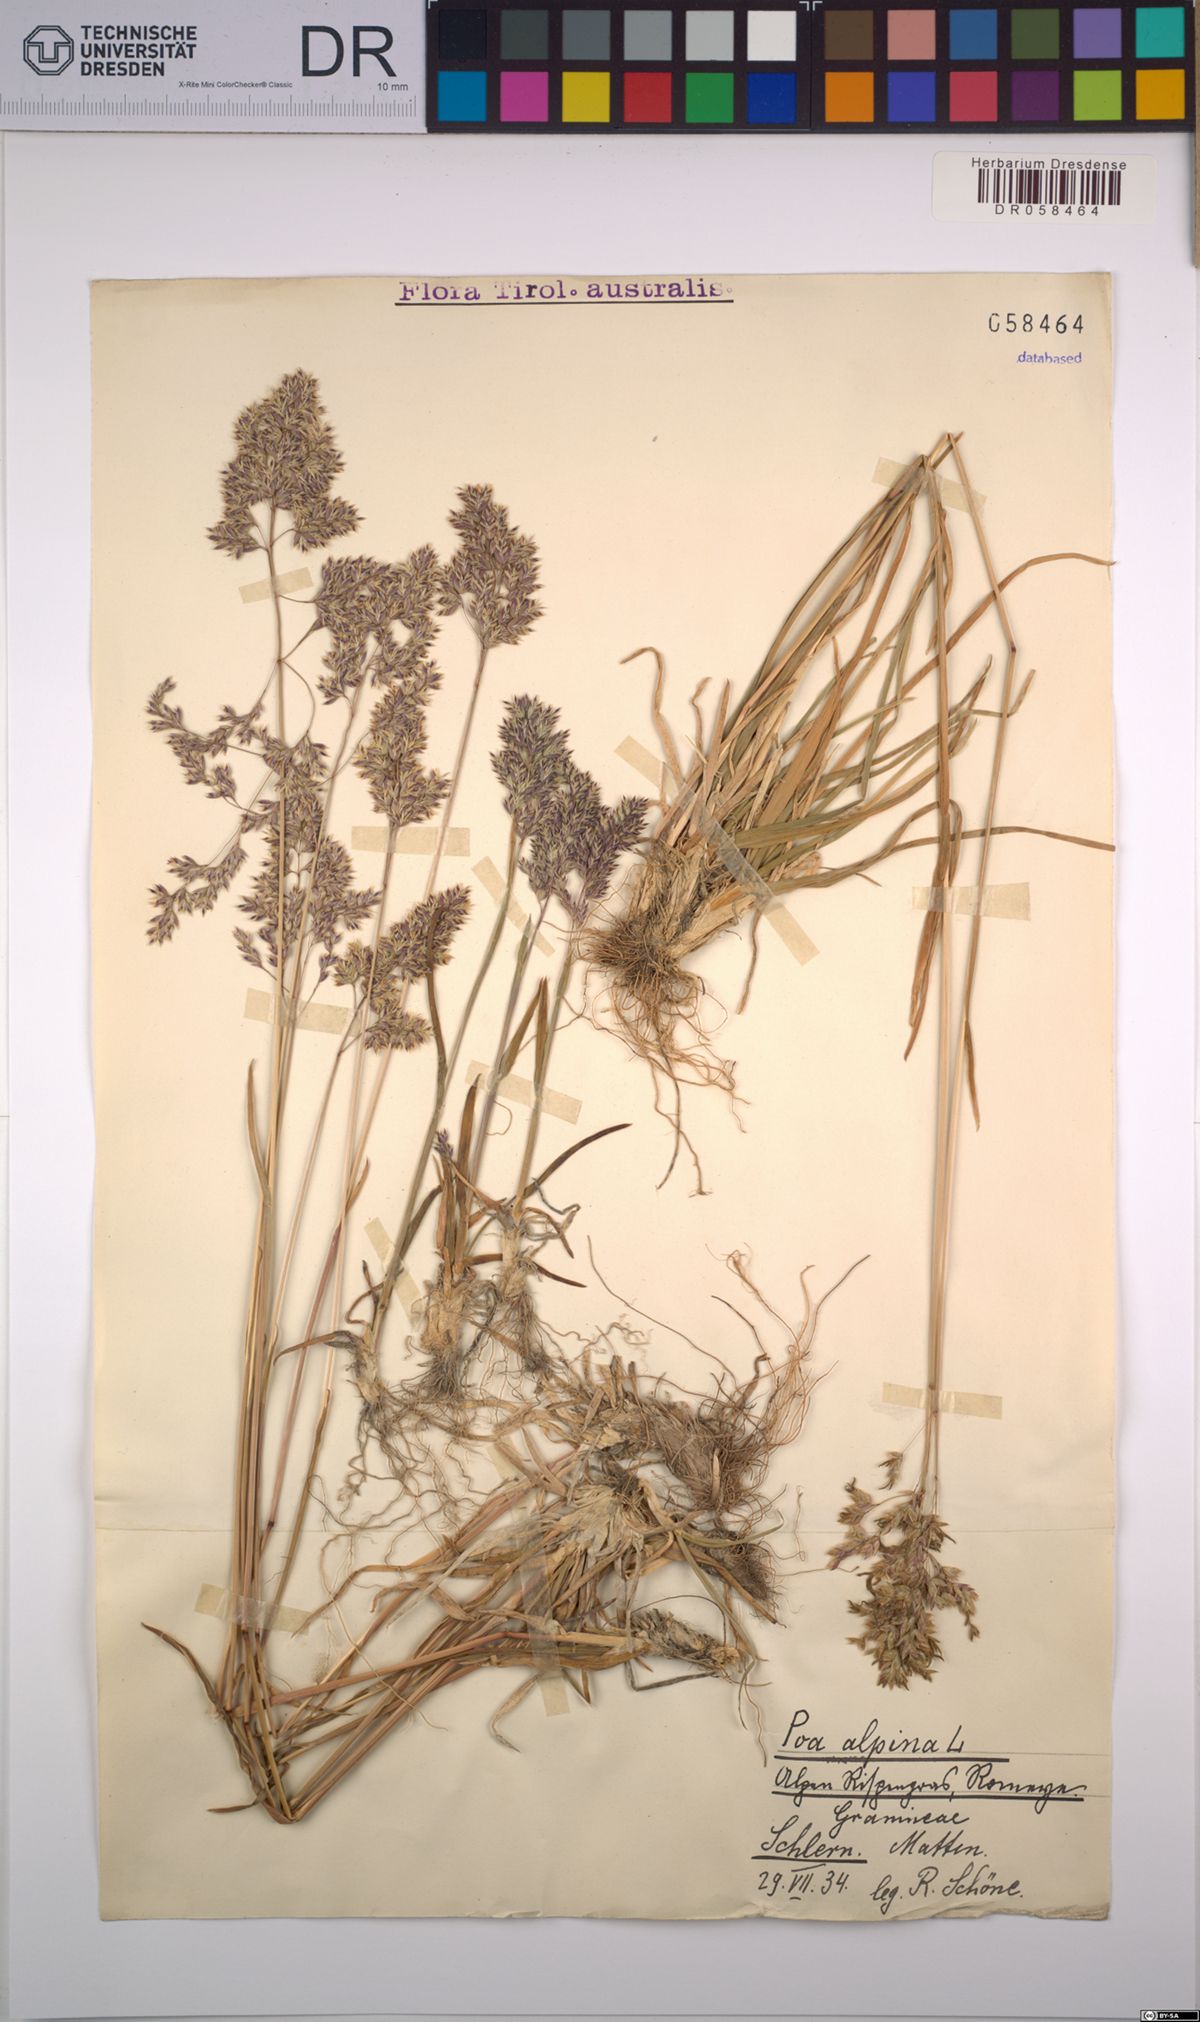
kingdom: Plantae
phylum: Tracheophyta
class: Liliopsida
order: Poales
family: Poaceae
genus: Poa
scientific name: Poa alpina
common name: Alpine bluegrass
